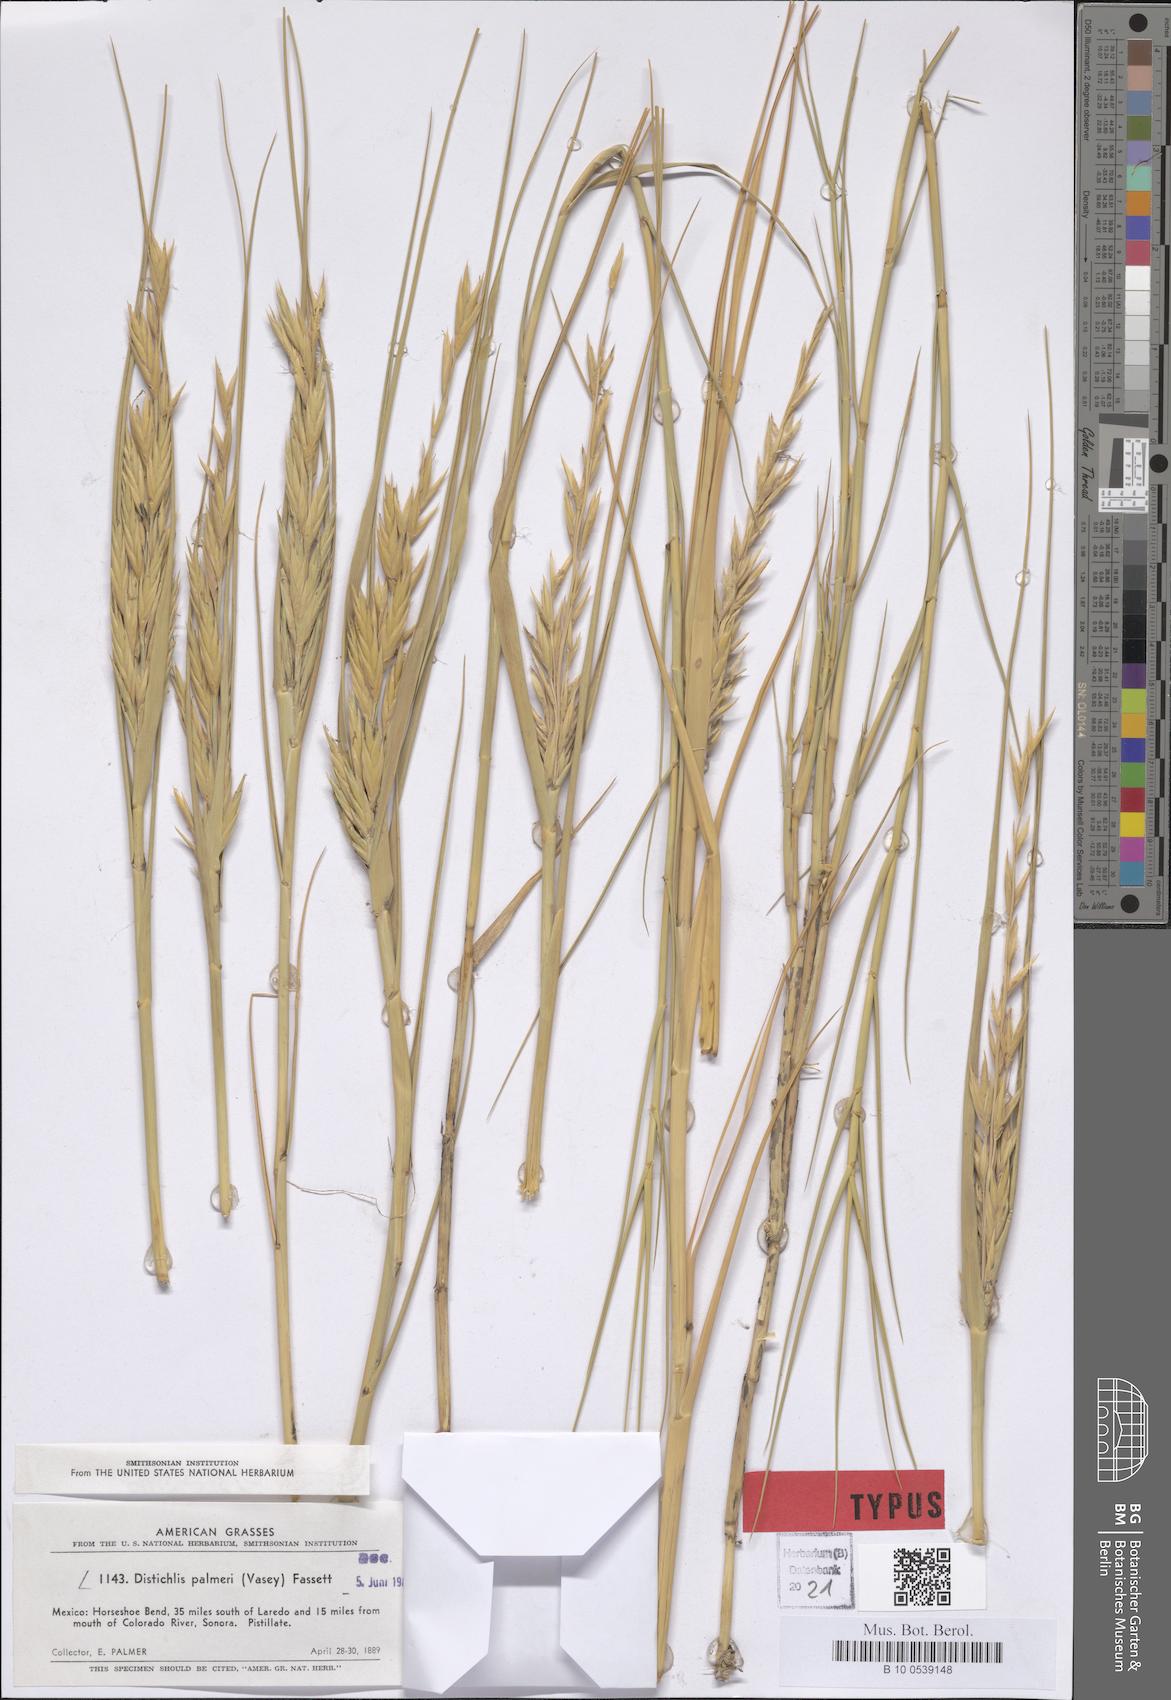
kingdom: Plantae
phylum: Tracheophyta
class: Liliopsida
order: Poales
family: Poaceae
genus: Distichlis
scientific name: Distichlis palmeri
